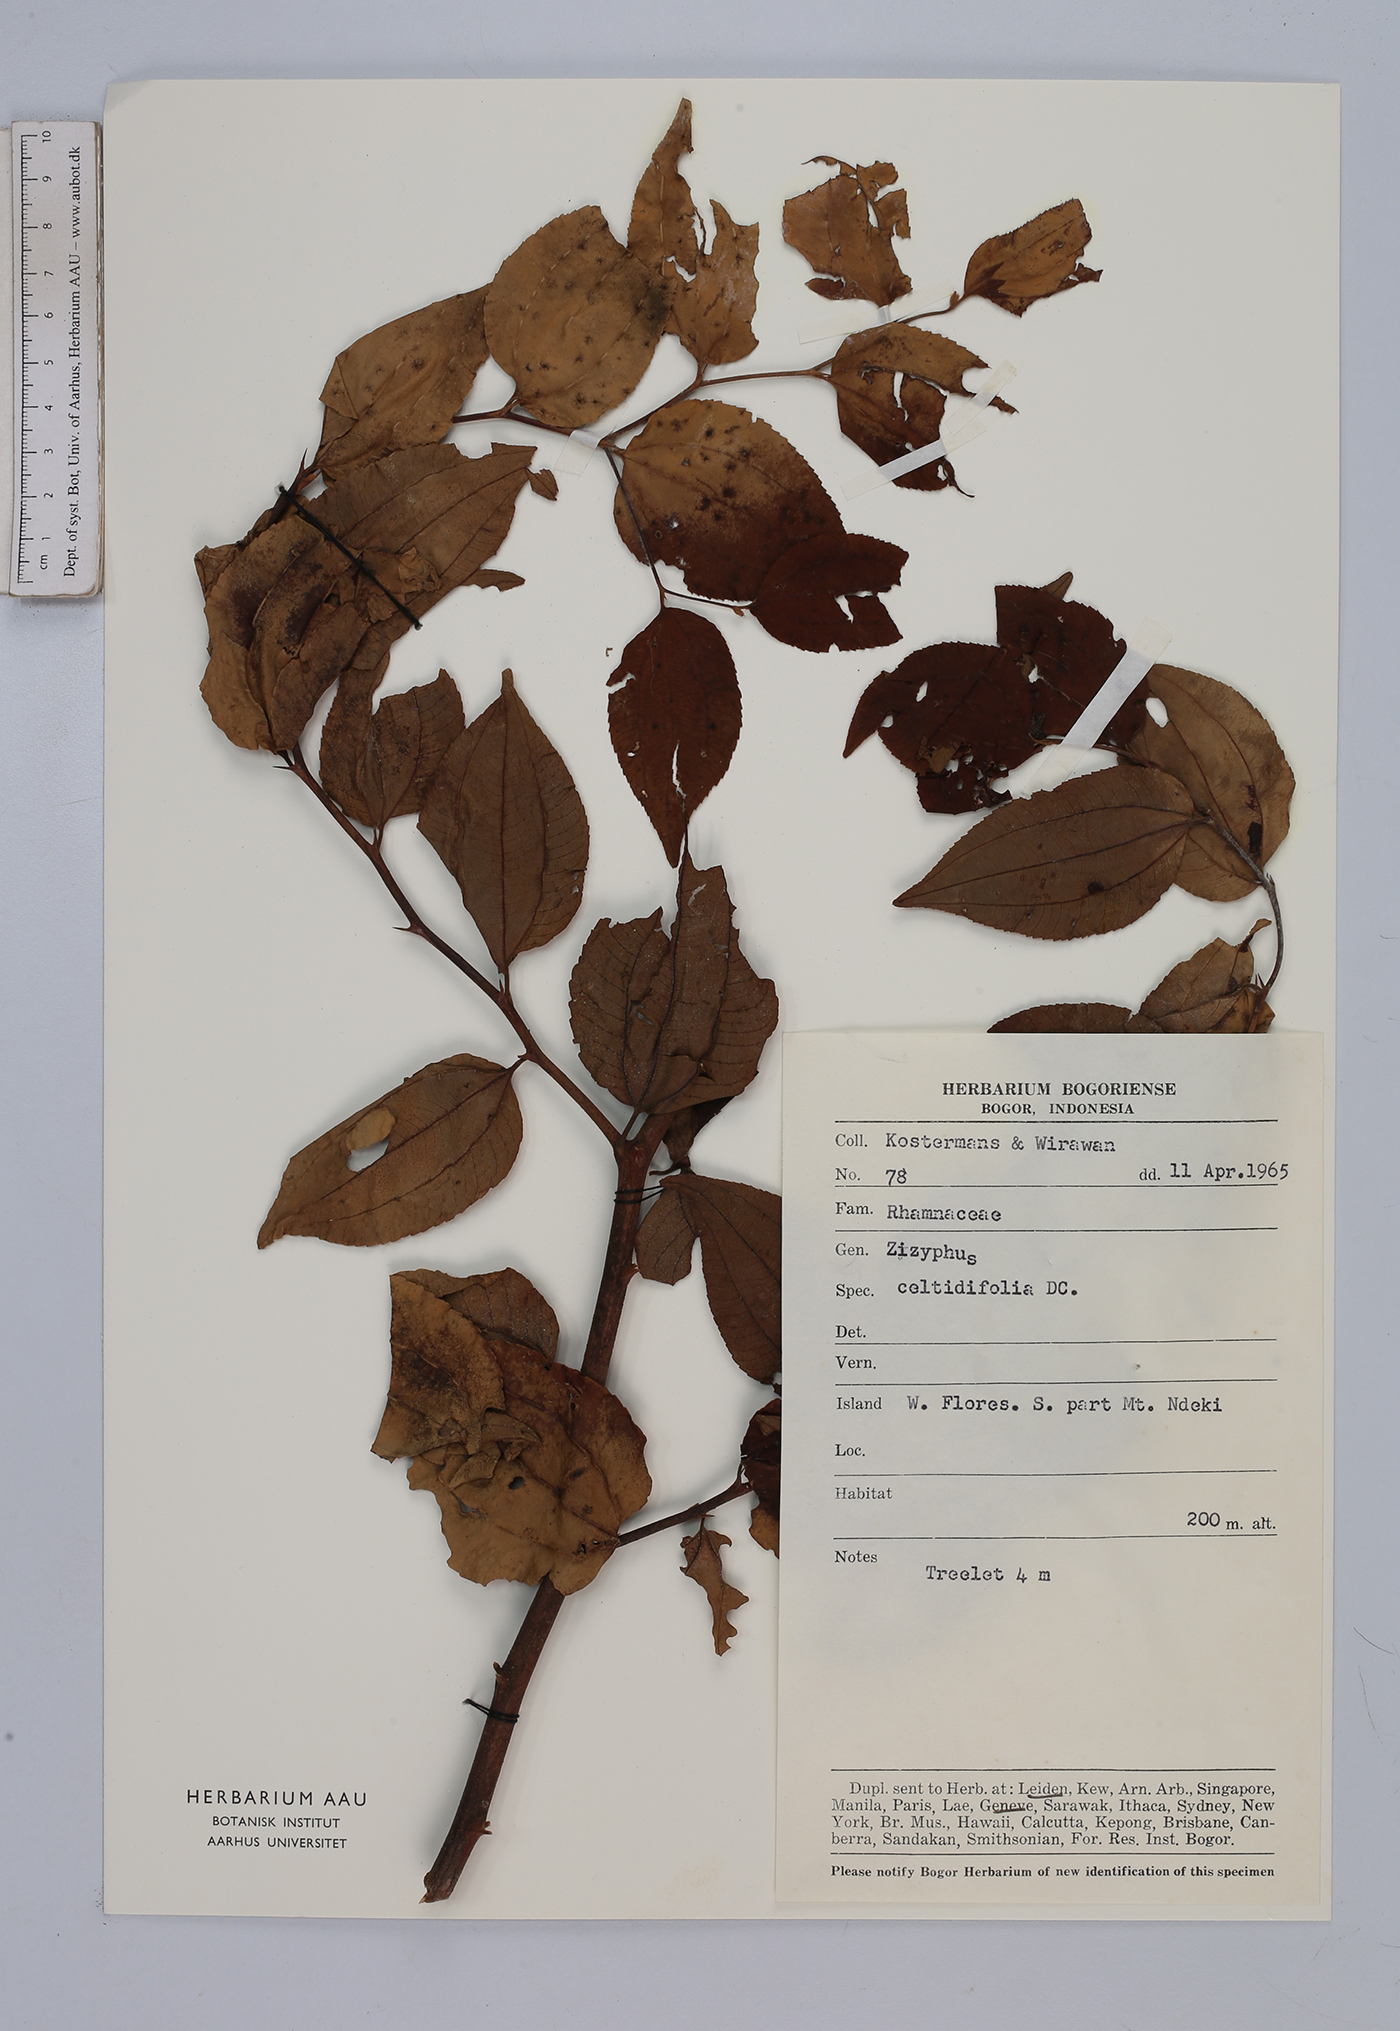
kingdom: Plantae
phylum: Tracheophyta
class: Magnoliopsida
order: Rosales
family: Rhamnaceae
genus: Ziziphus
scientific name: Ziziphus oenopolia
